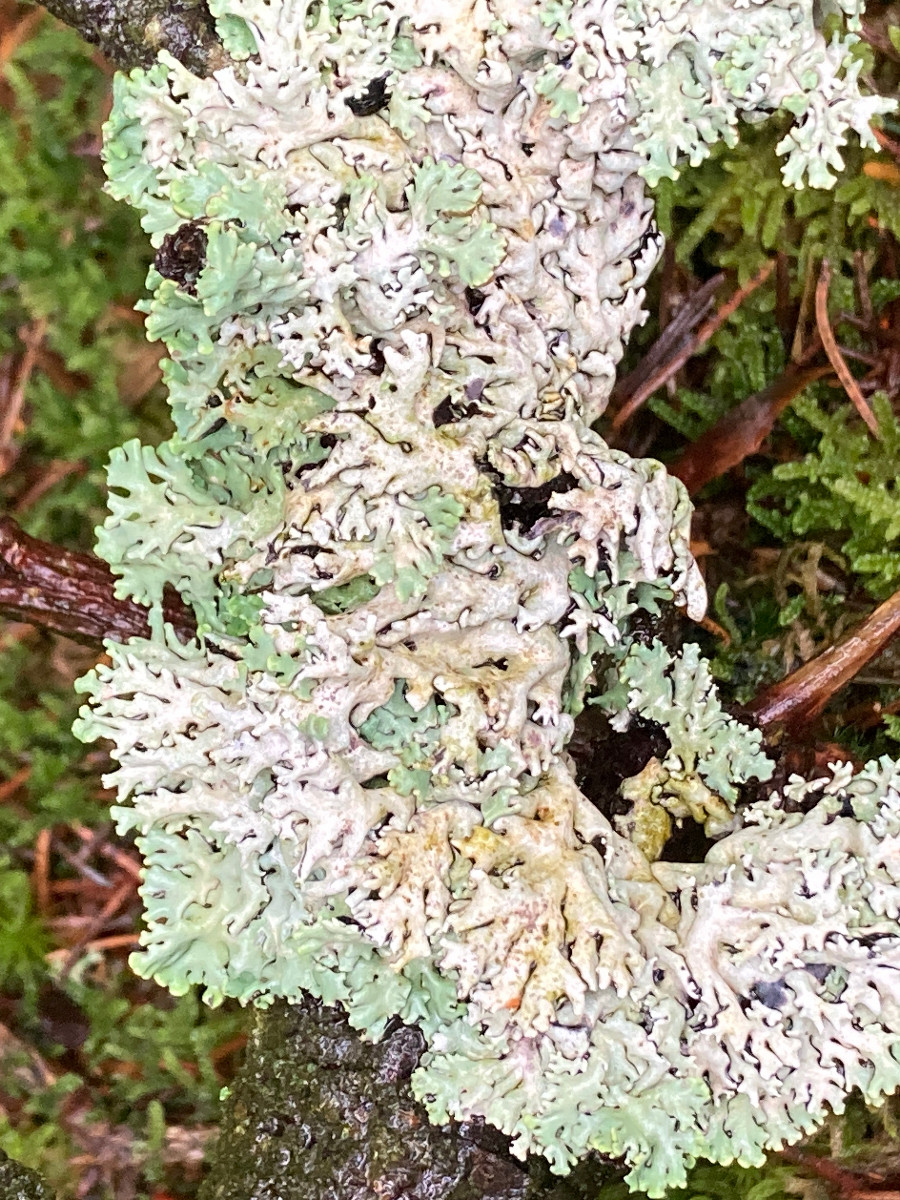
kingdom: Fungi
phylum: Ascomycota
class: Lecanoromycetes
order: Lecanorales
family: Parmeliaceae
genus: Hypogymnia
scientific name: Hypogymnia physodes
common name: almindelig kvistlav
